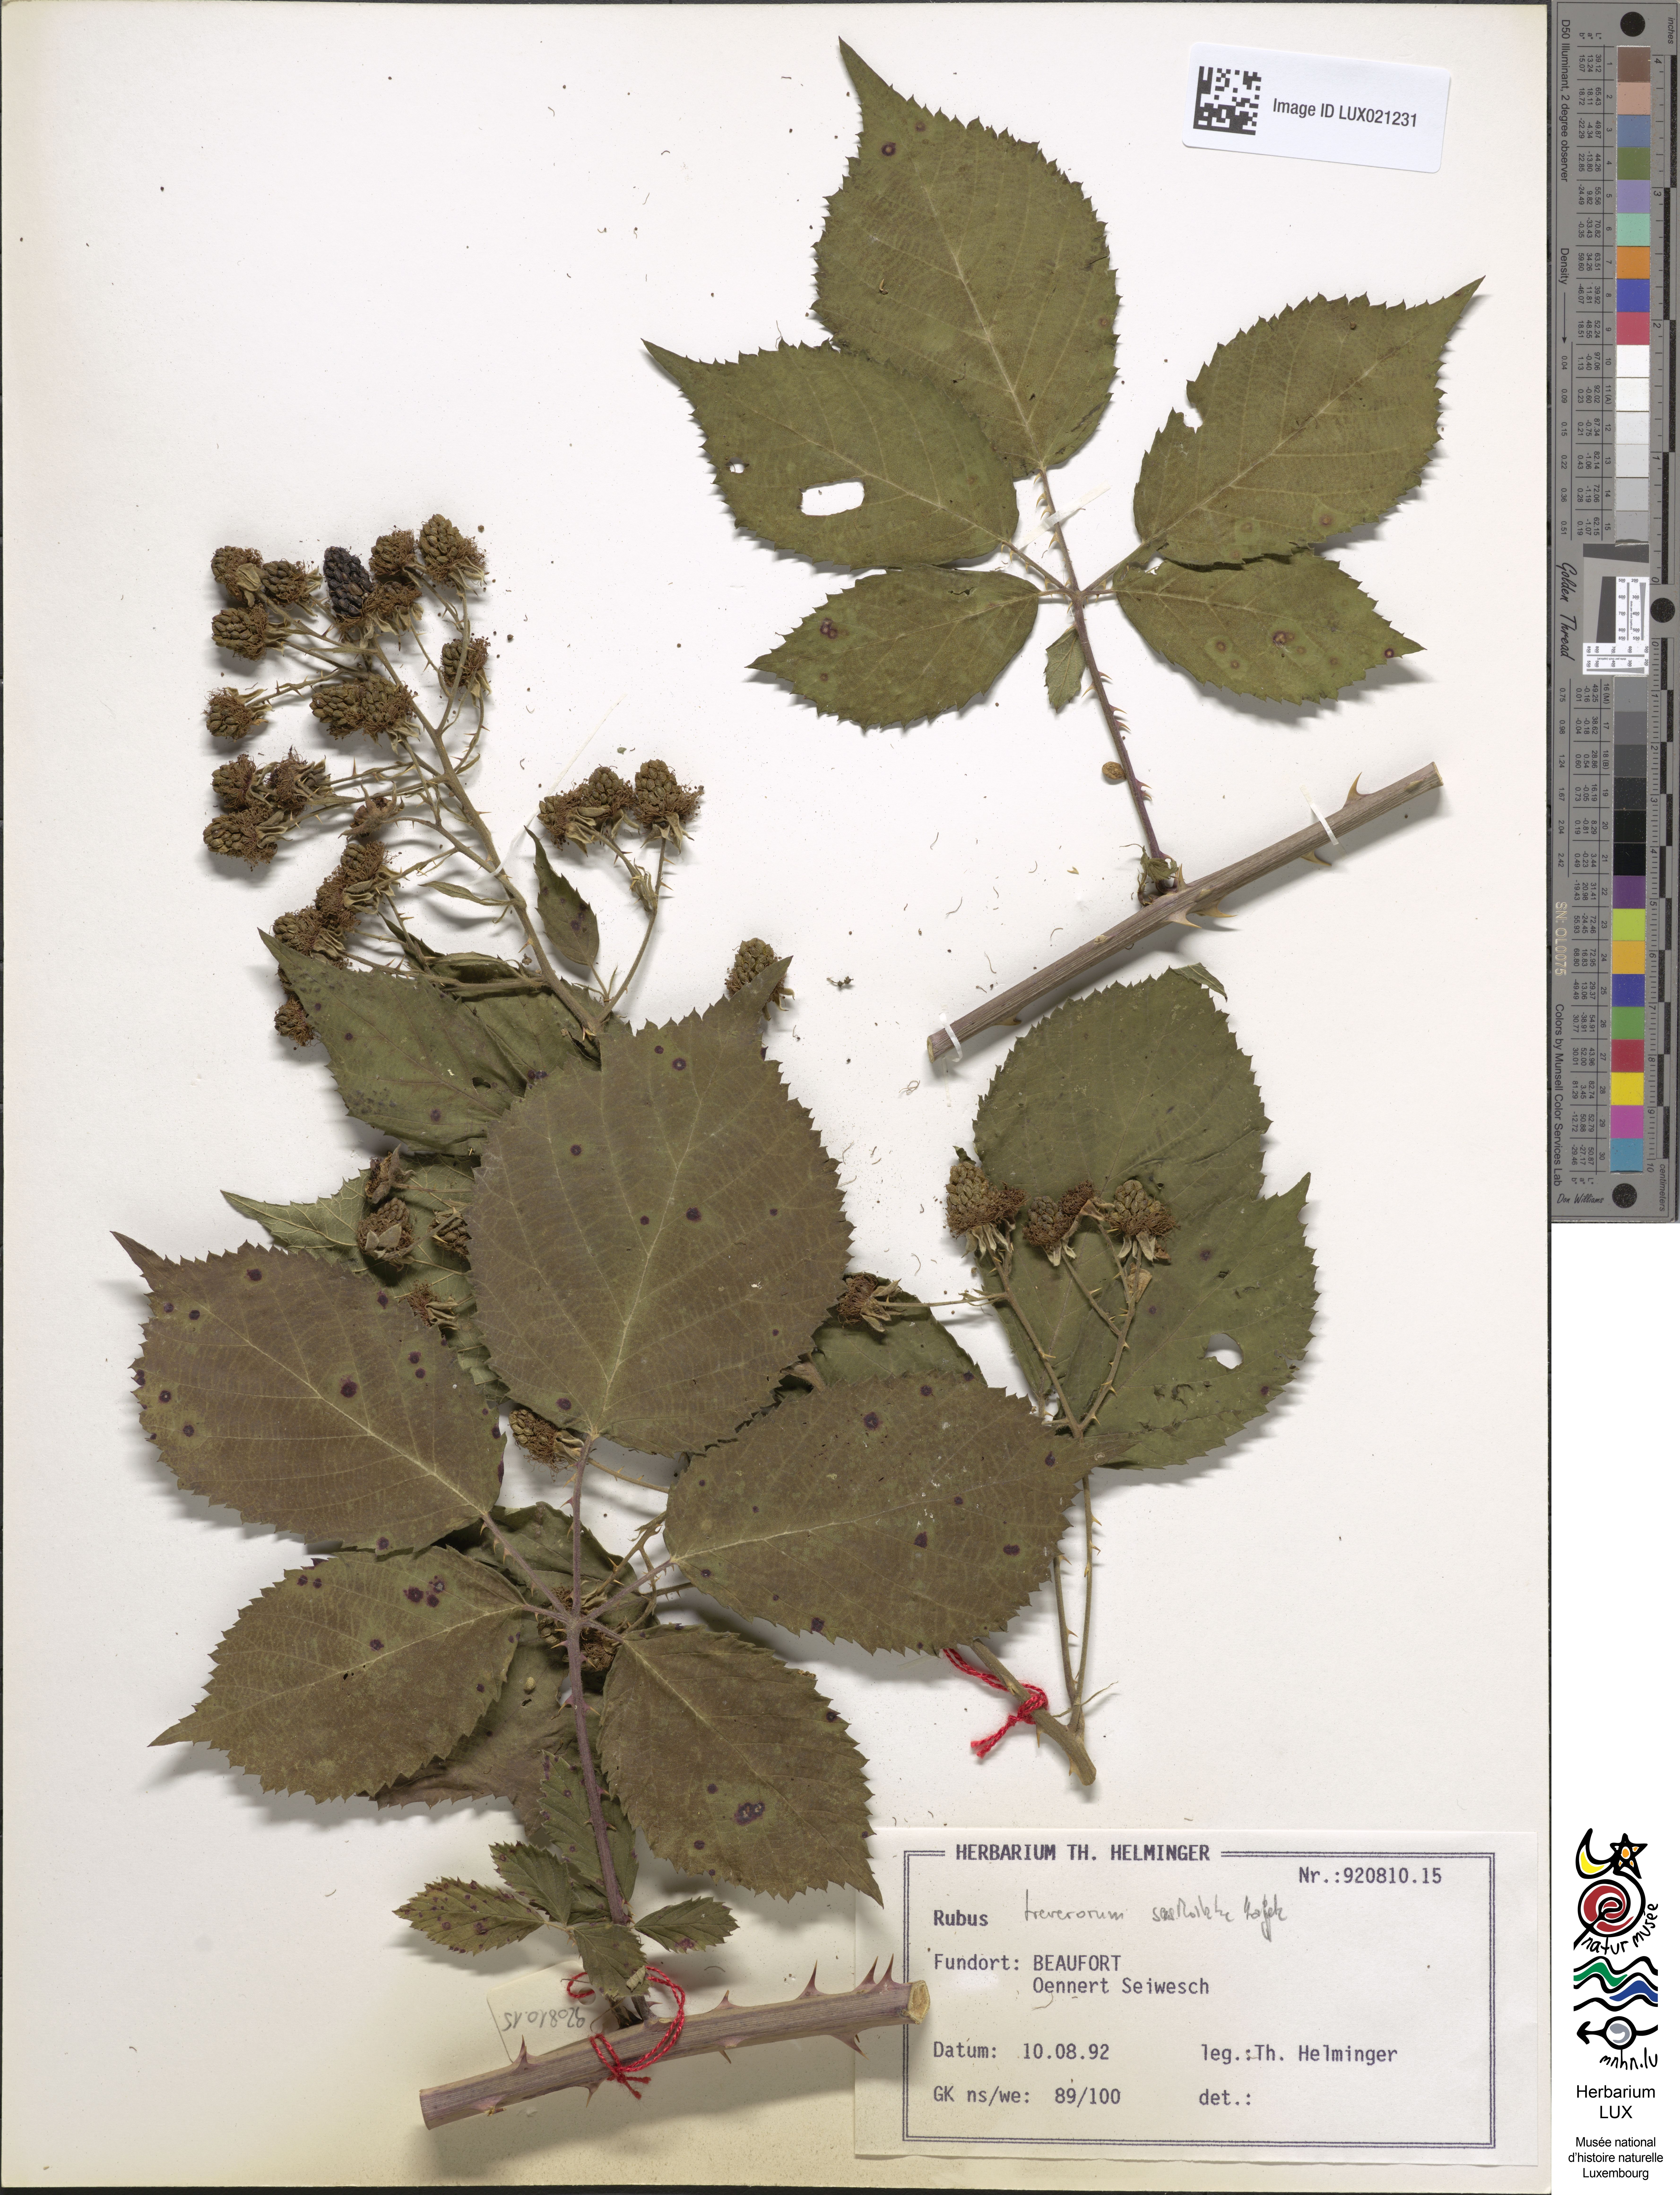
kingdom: Plantae
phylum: Tracheophyta
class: Magnoliopsida
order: Rosales
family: Rosaceae
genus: Rubus
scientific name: Rubus
